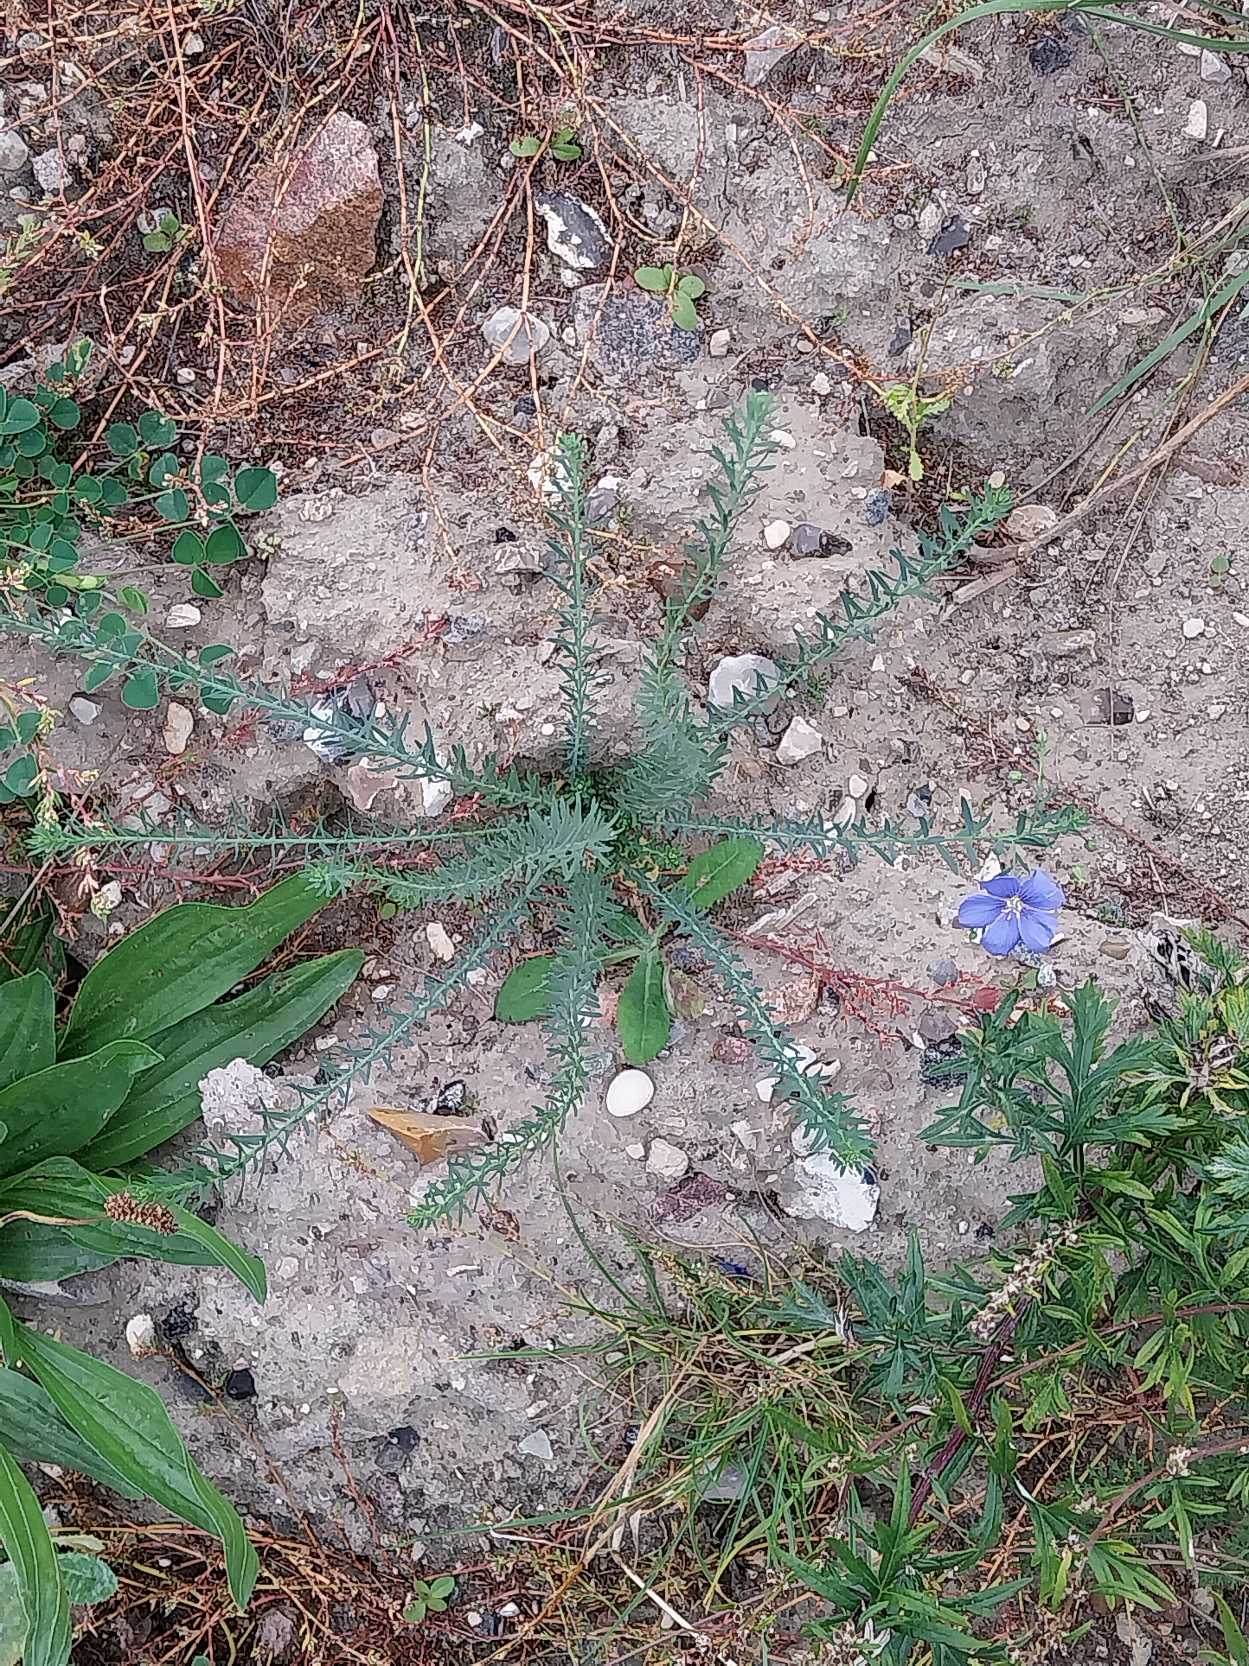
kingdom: Plantae
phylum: Tracheophyta
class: Magnoliopsida
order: Malpighiales
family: Linaceae
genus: Linum
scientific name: Linum austriacum
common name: Østrigsk hør
